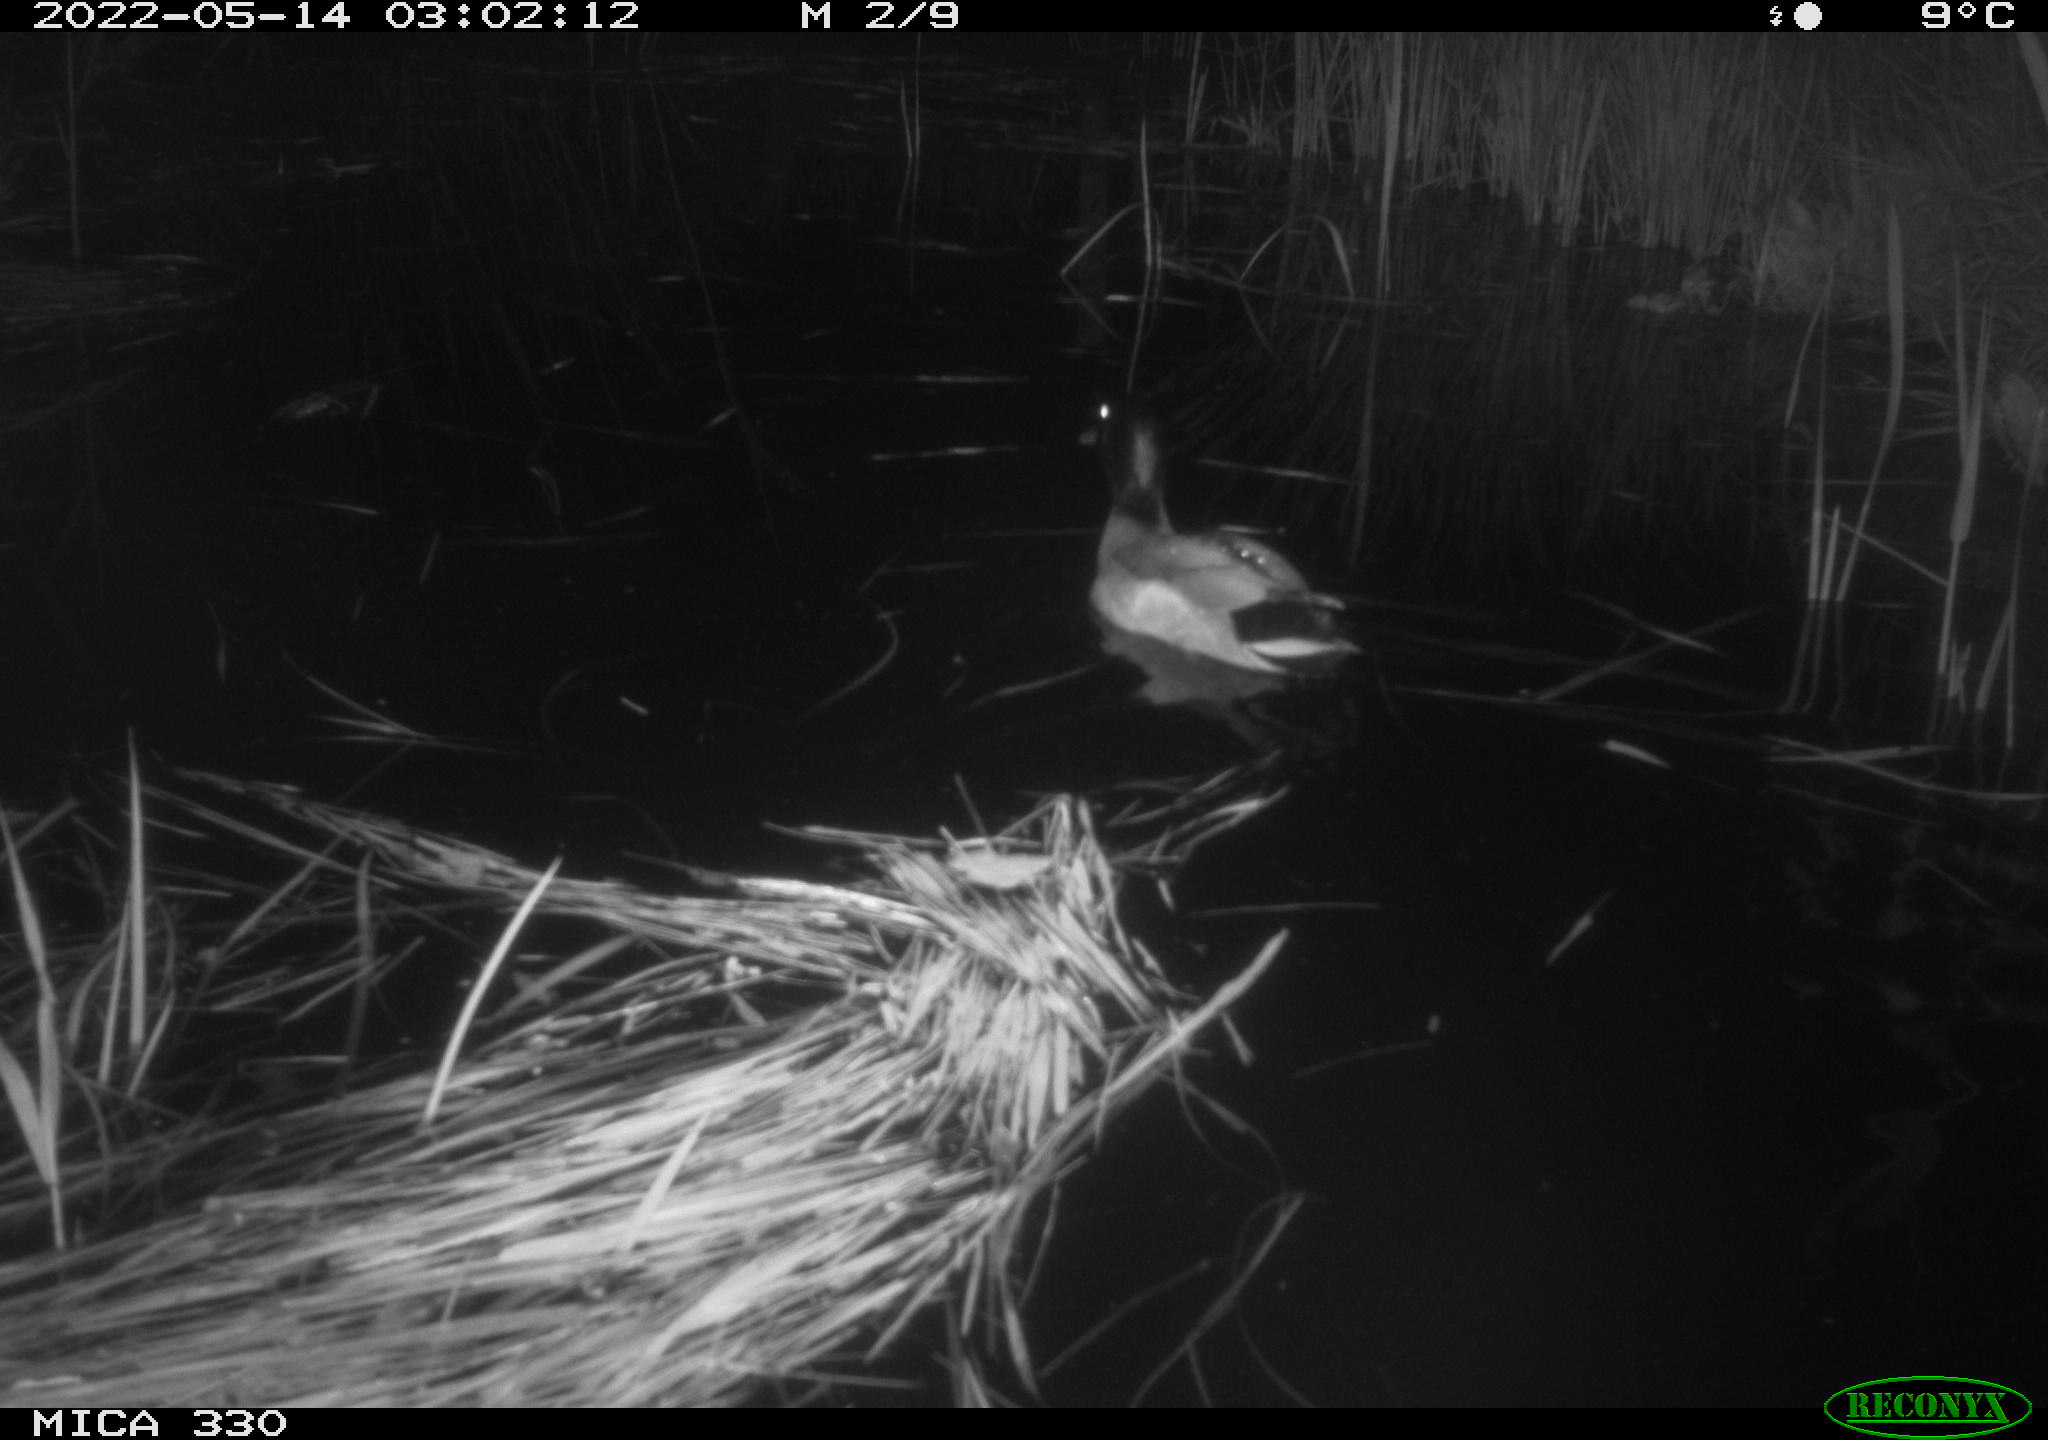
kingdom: Animalia
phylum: Chordata
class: Aves
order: Anseriformes
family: Anatidae
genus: Anas
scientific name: Anas platyrhynchos
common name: Mallard
